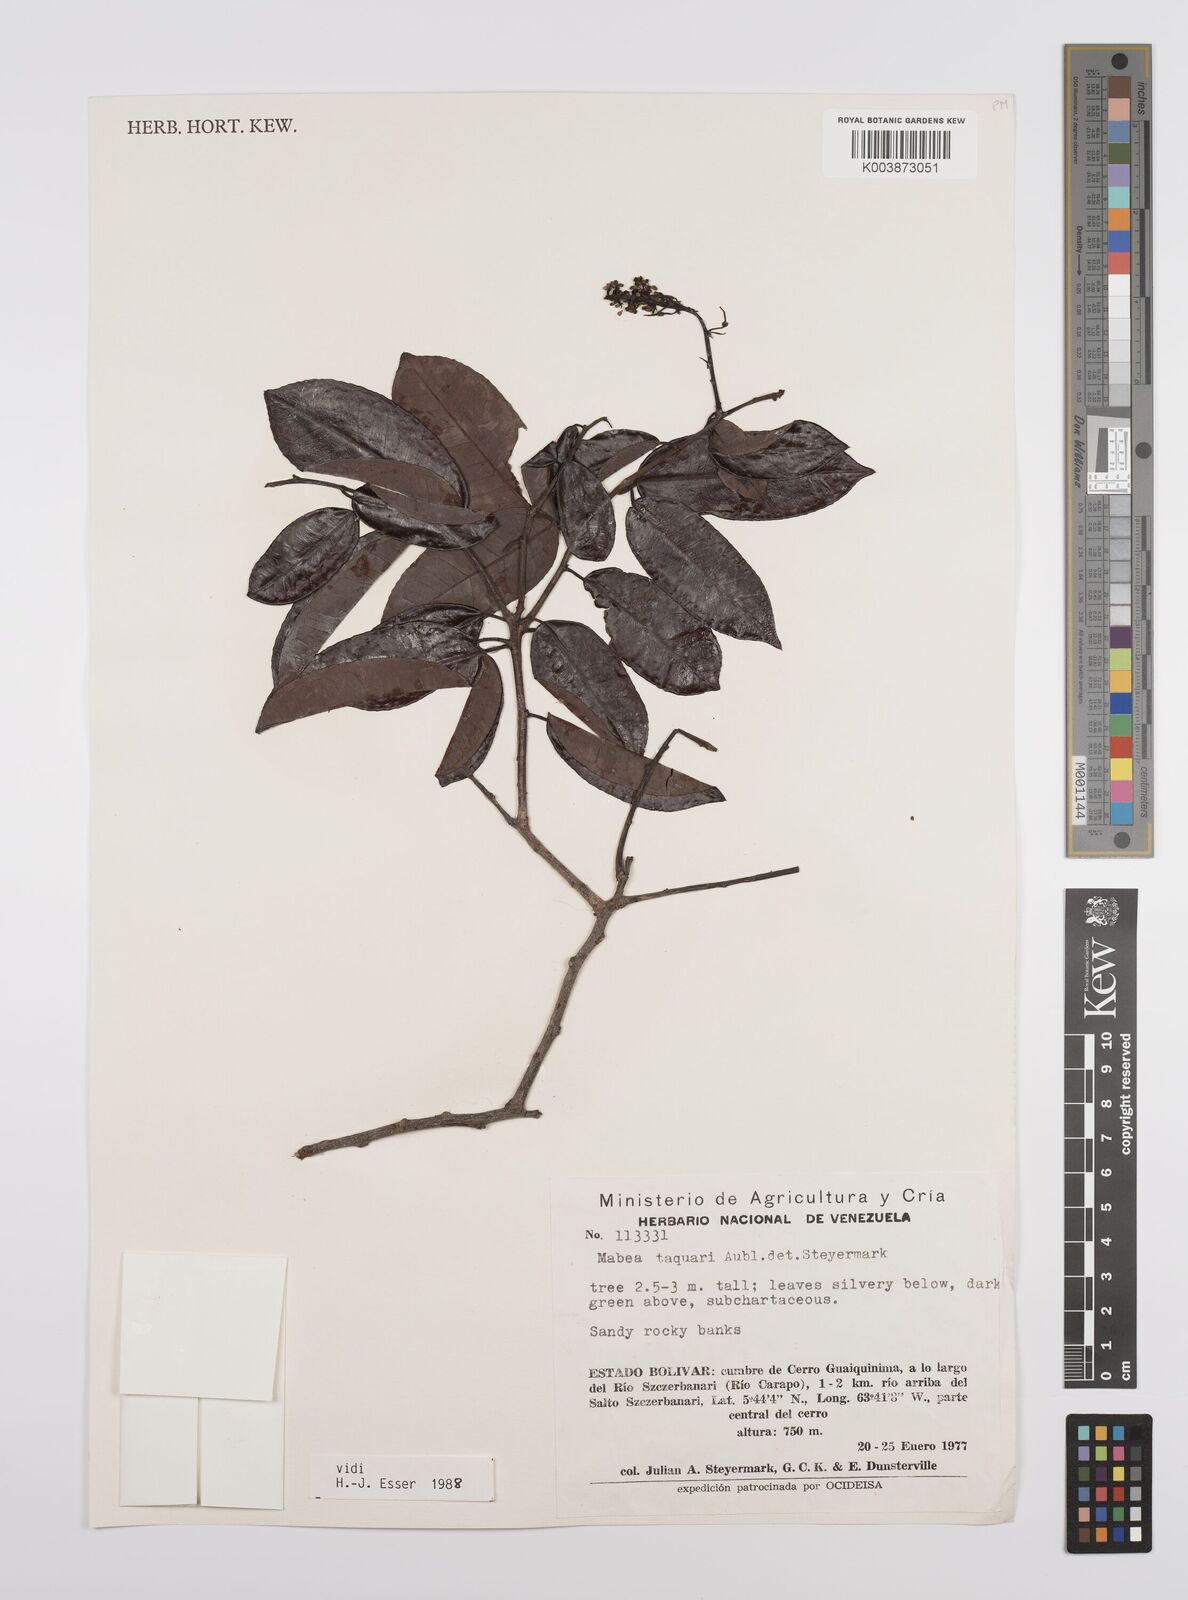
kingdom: Plantae
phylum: Tracheophyta
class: Magnoliopsida
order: Malpighiales
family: Euphorbiaceae
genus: Mabea
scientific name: Mabea taquari
